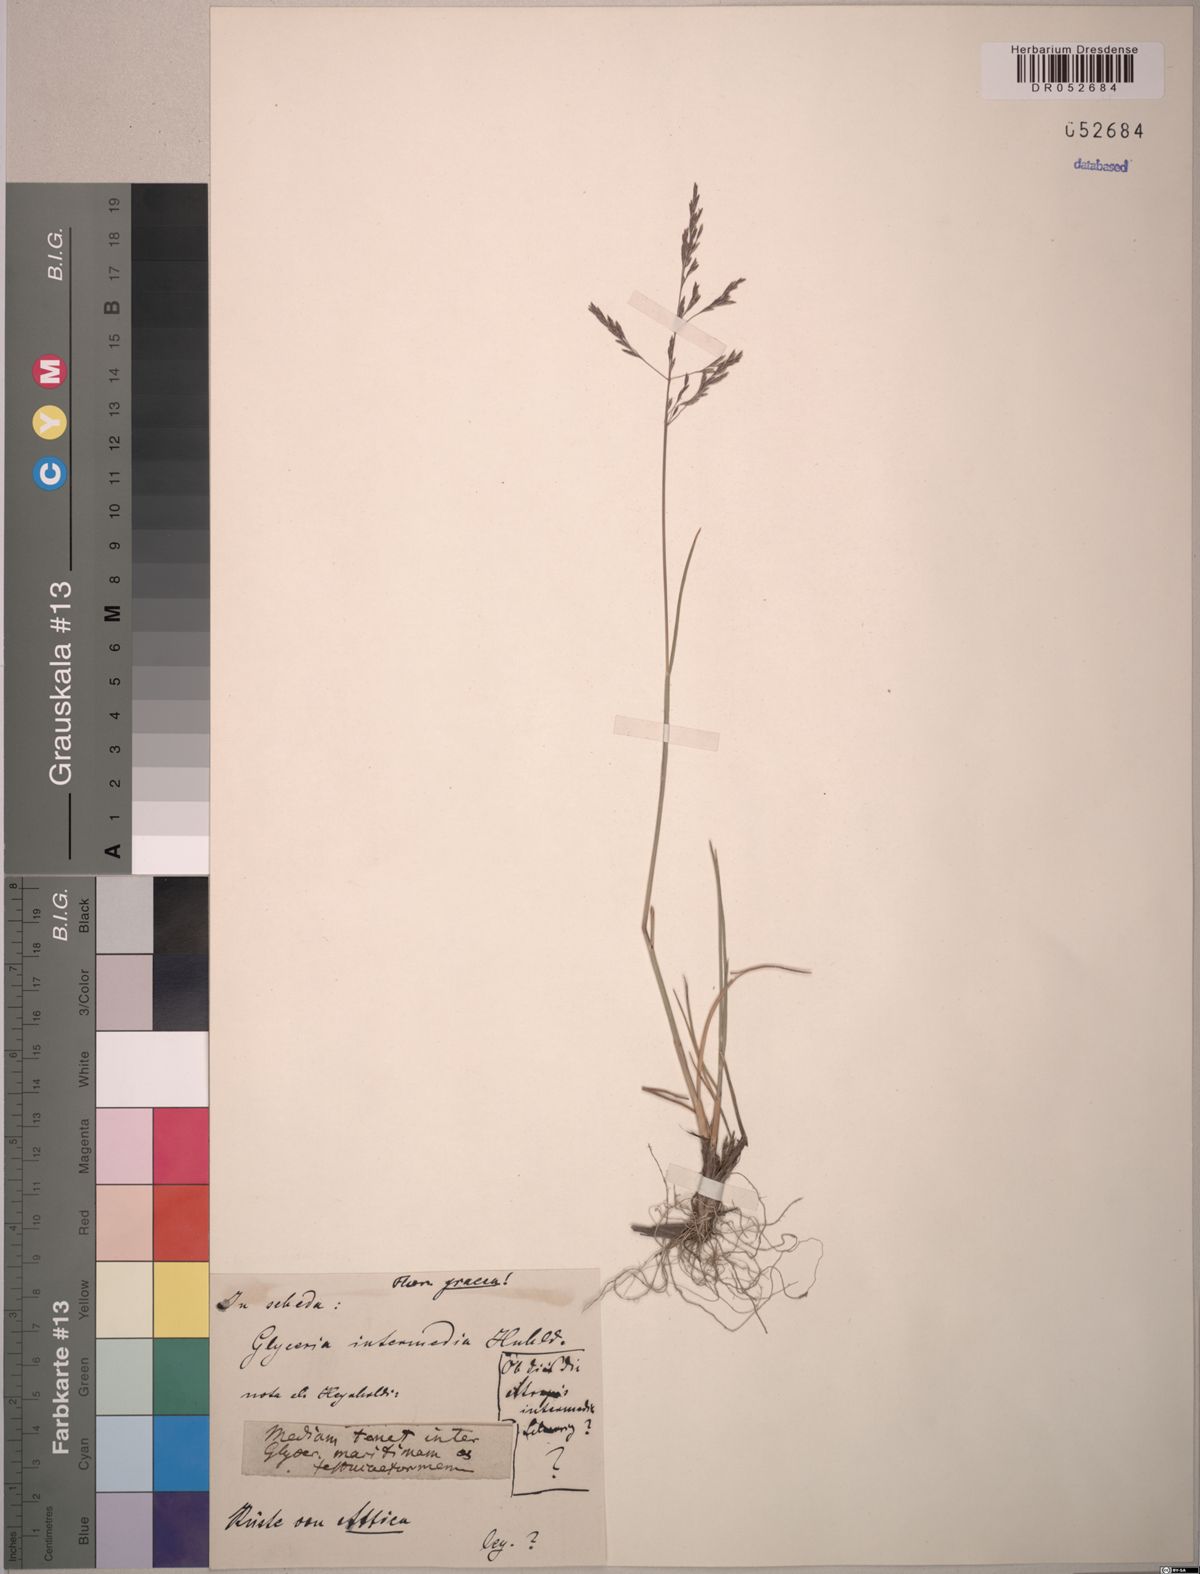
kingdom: Plantae
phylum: Tracheophyta
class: Liliopsida
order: Poales
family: Poaceae
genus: Glyceria
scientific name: Glyceria
